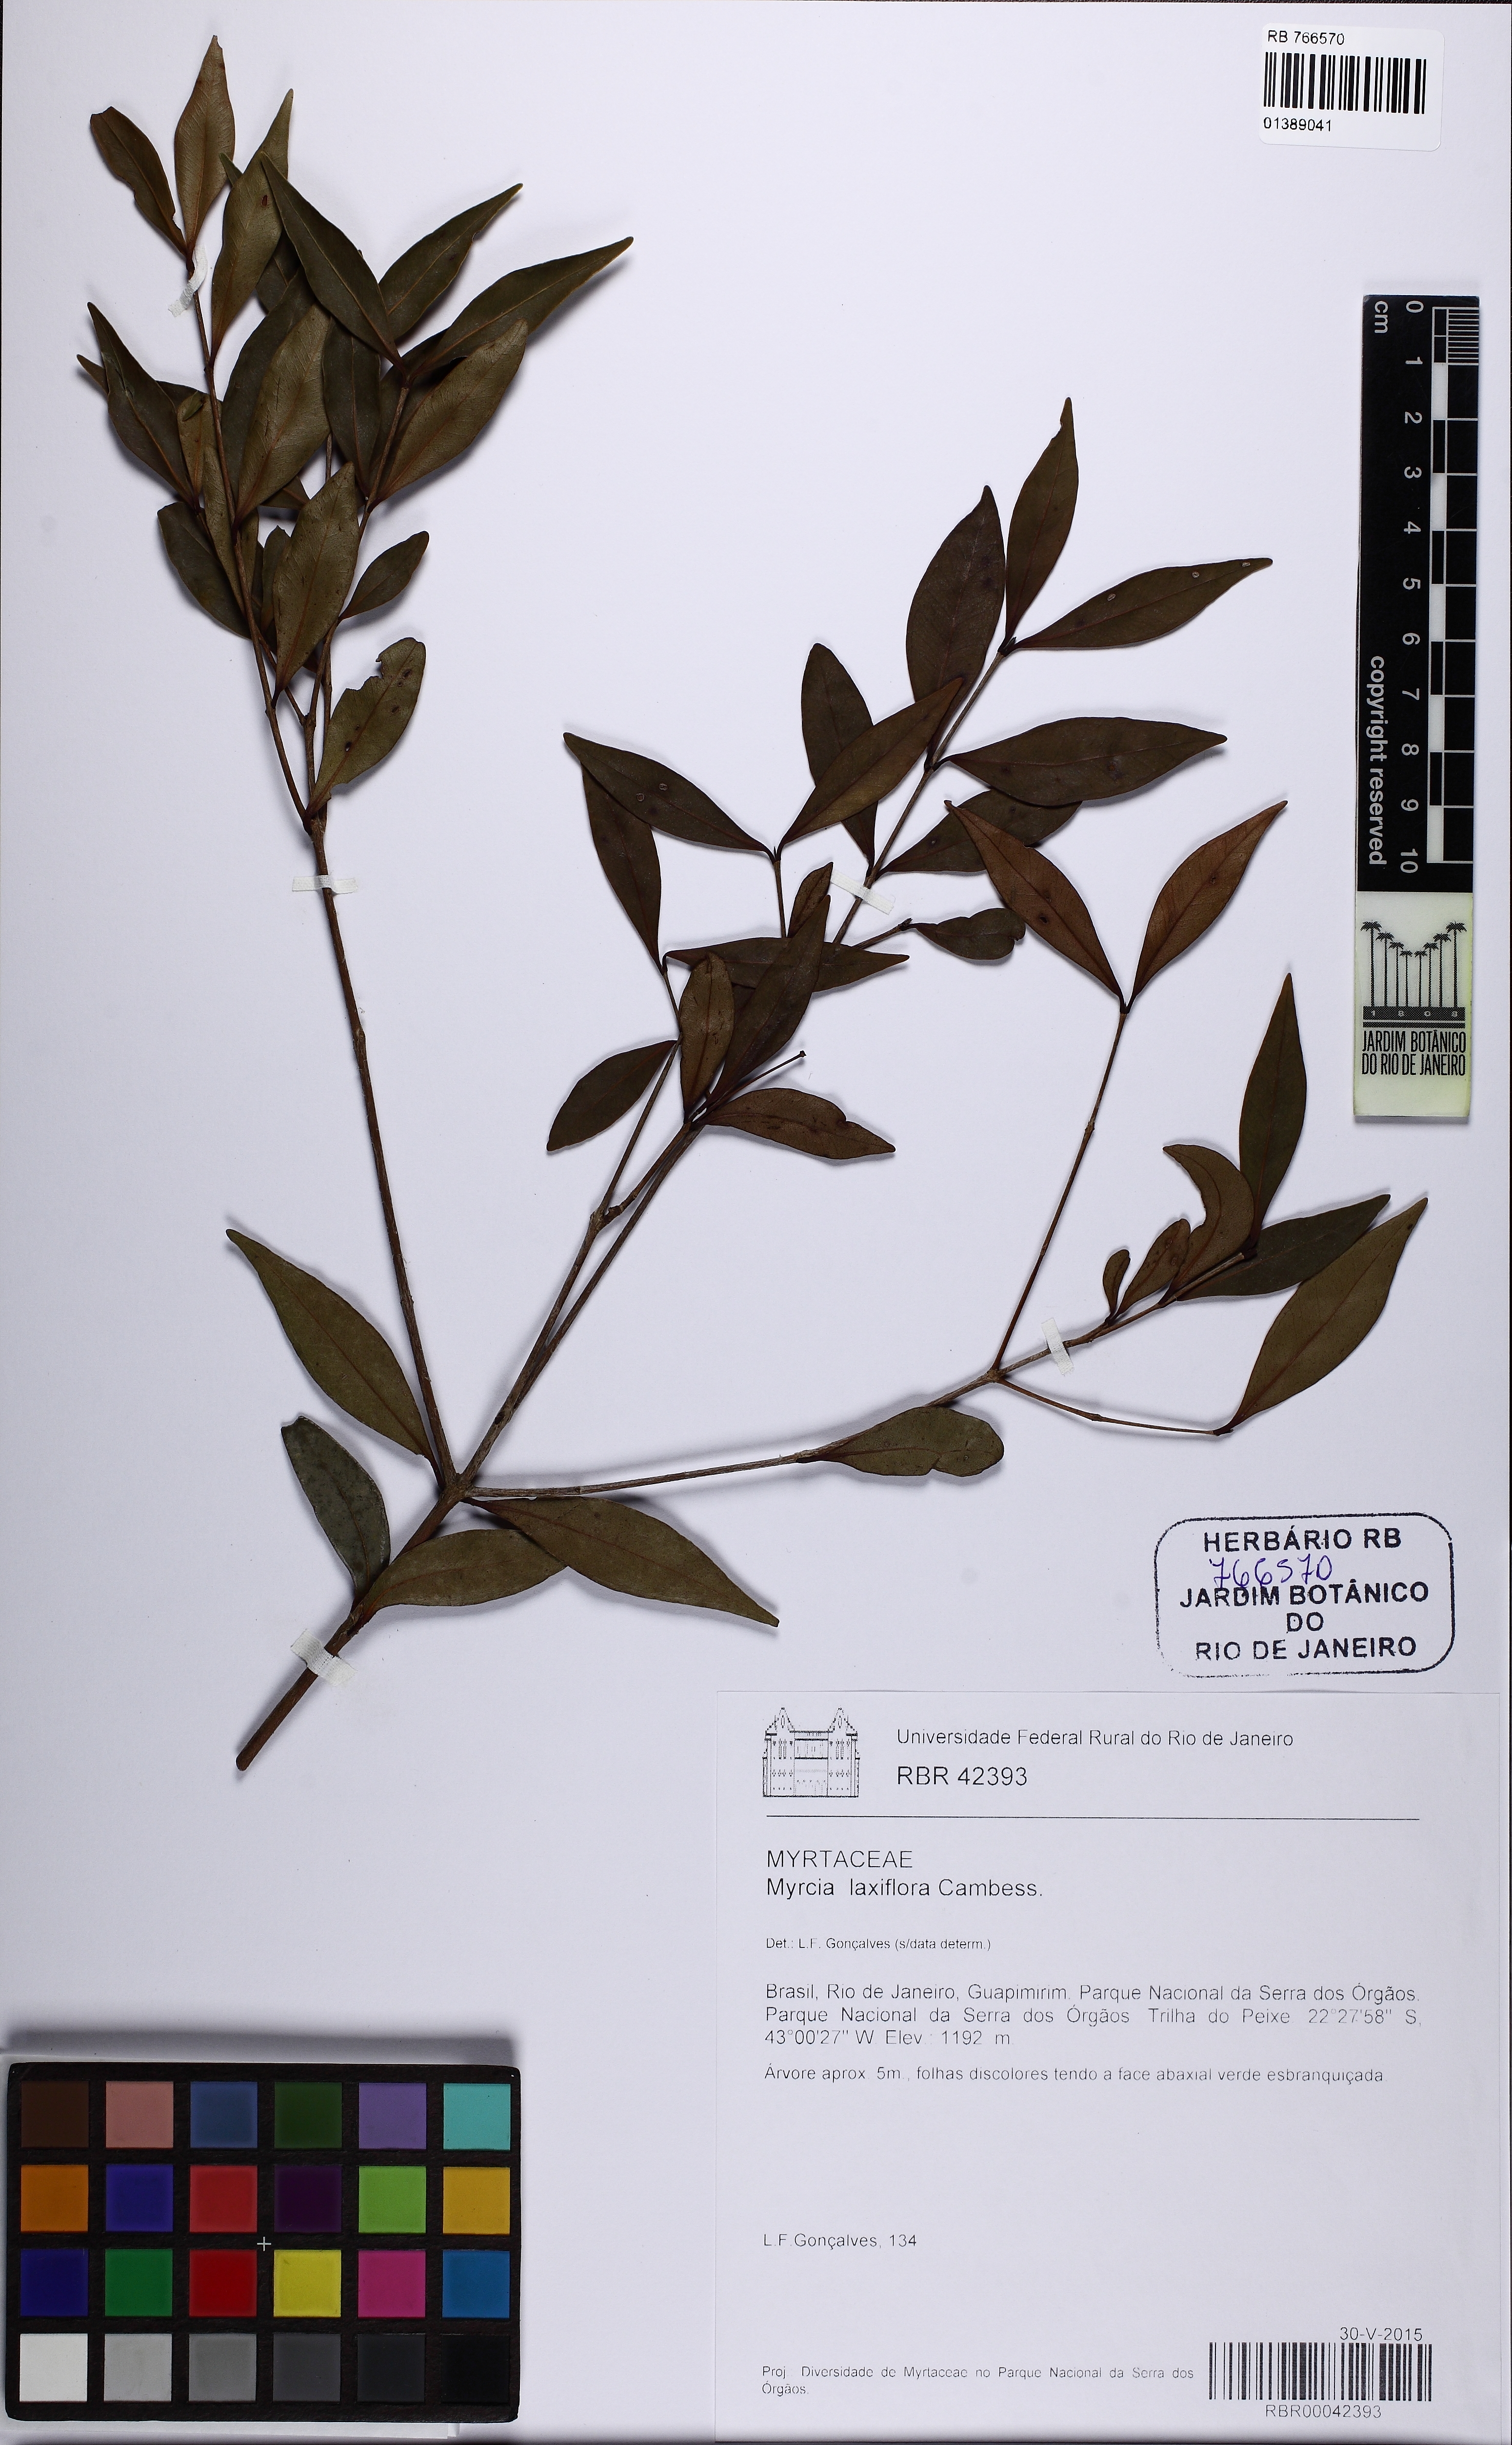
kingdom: Plantae
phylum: Tracheophyta
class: Magnoliopsida
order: Myrtales
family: Myrtaceae
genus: Myrcia
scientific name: Myrcia laxiflora
